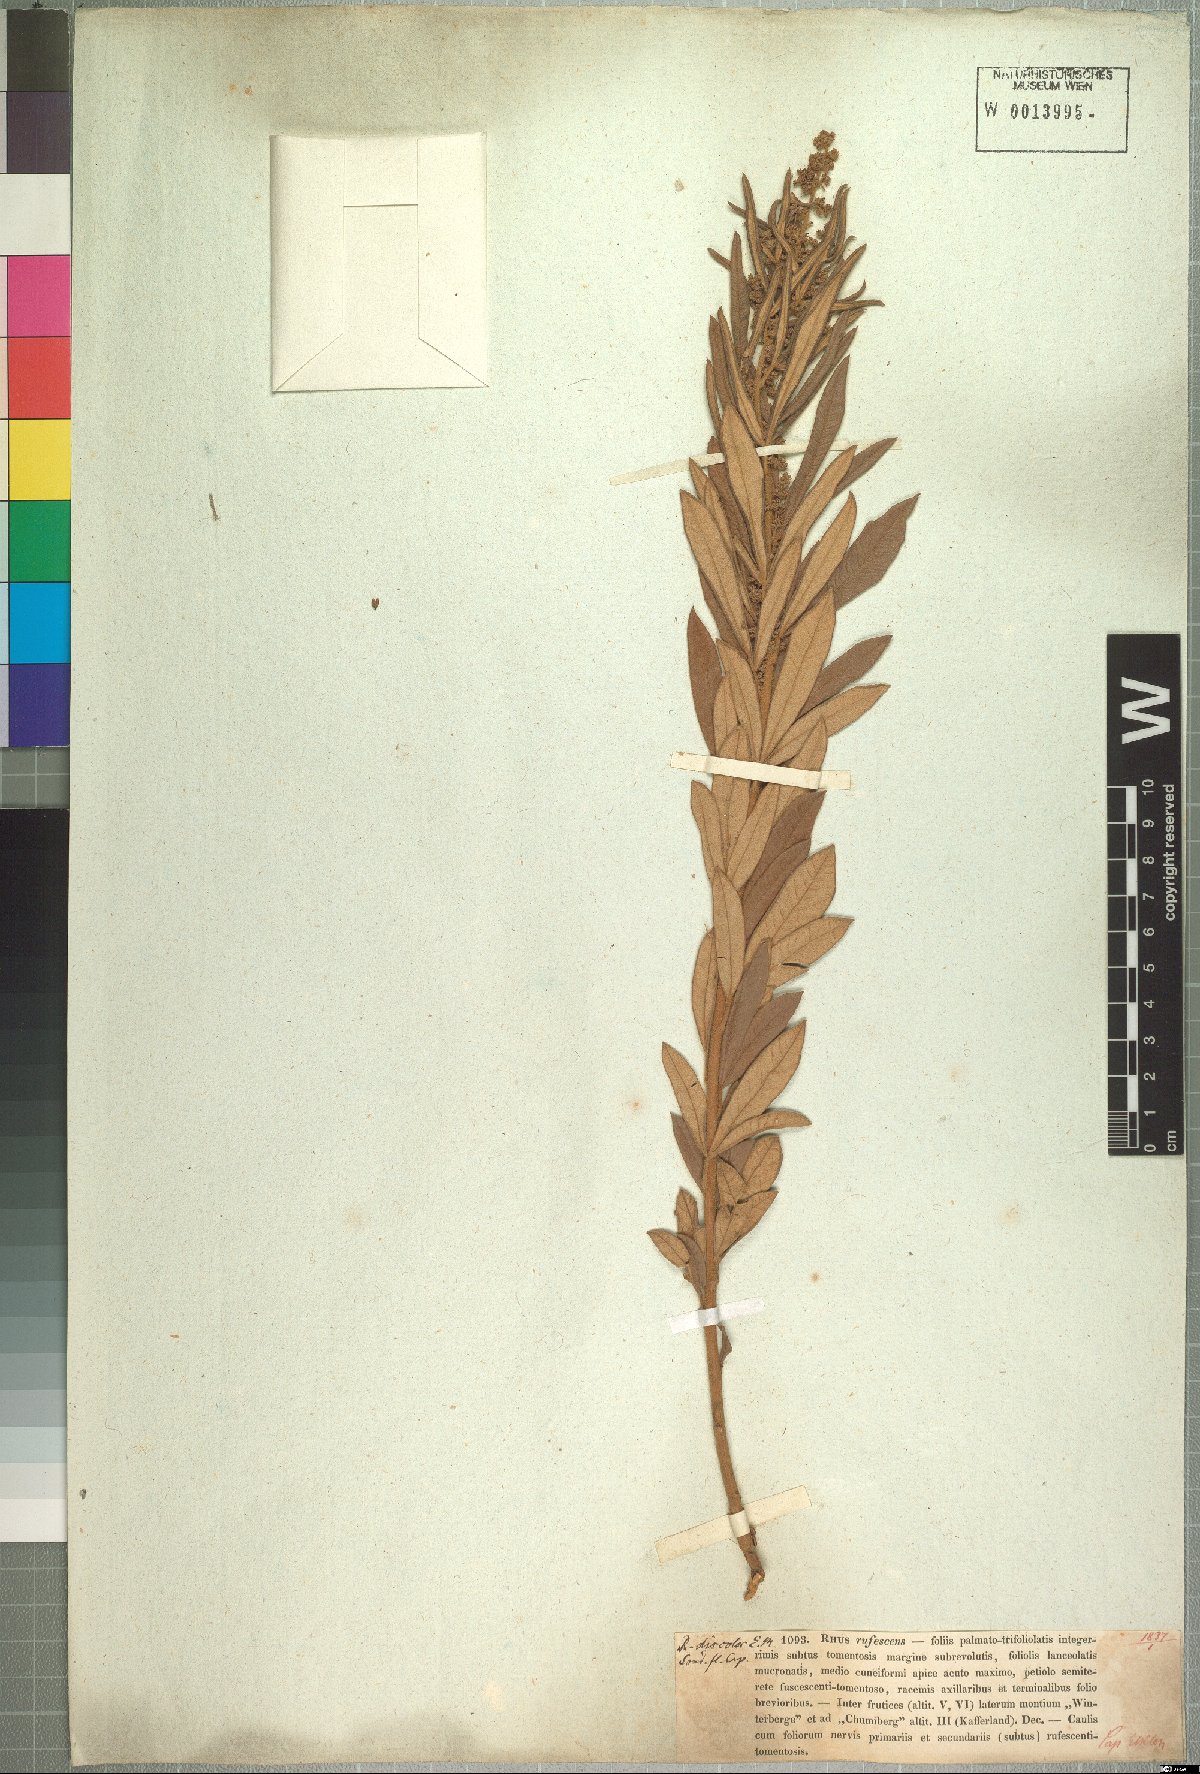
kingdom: Plantae
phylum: Tracheophyta
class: Magnoliopsida
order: Sapindales
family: Anacardiaceae
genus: Searsia
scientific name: Searsia discolor
